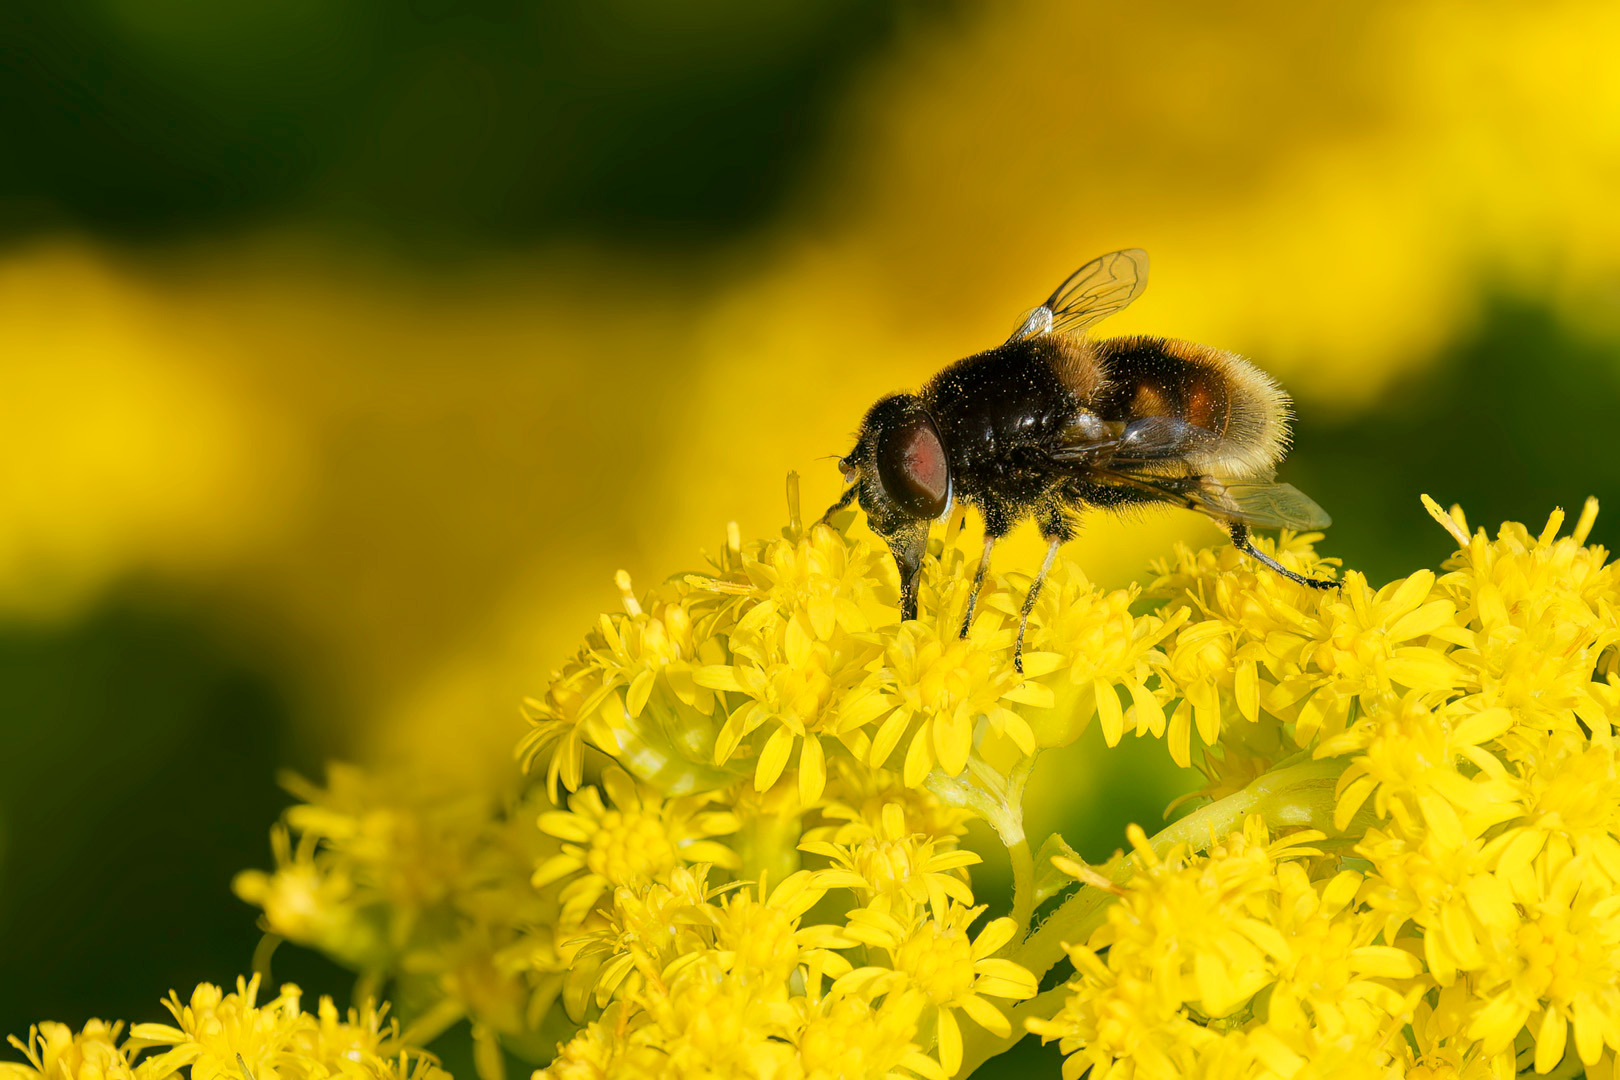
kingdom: Animalia
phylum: Arthropoda
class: Insecta
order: Diptera
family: Syrphidae
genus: Eristalis
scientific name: Eristalis intricaria
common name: Håret dyndflue
